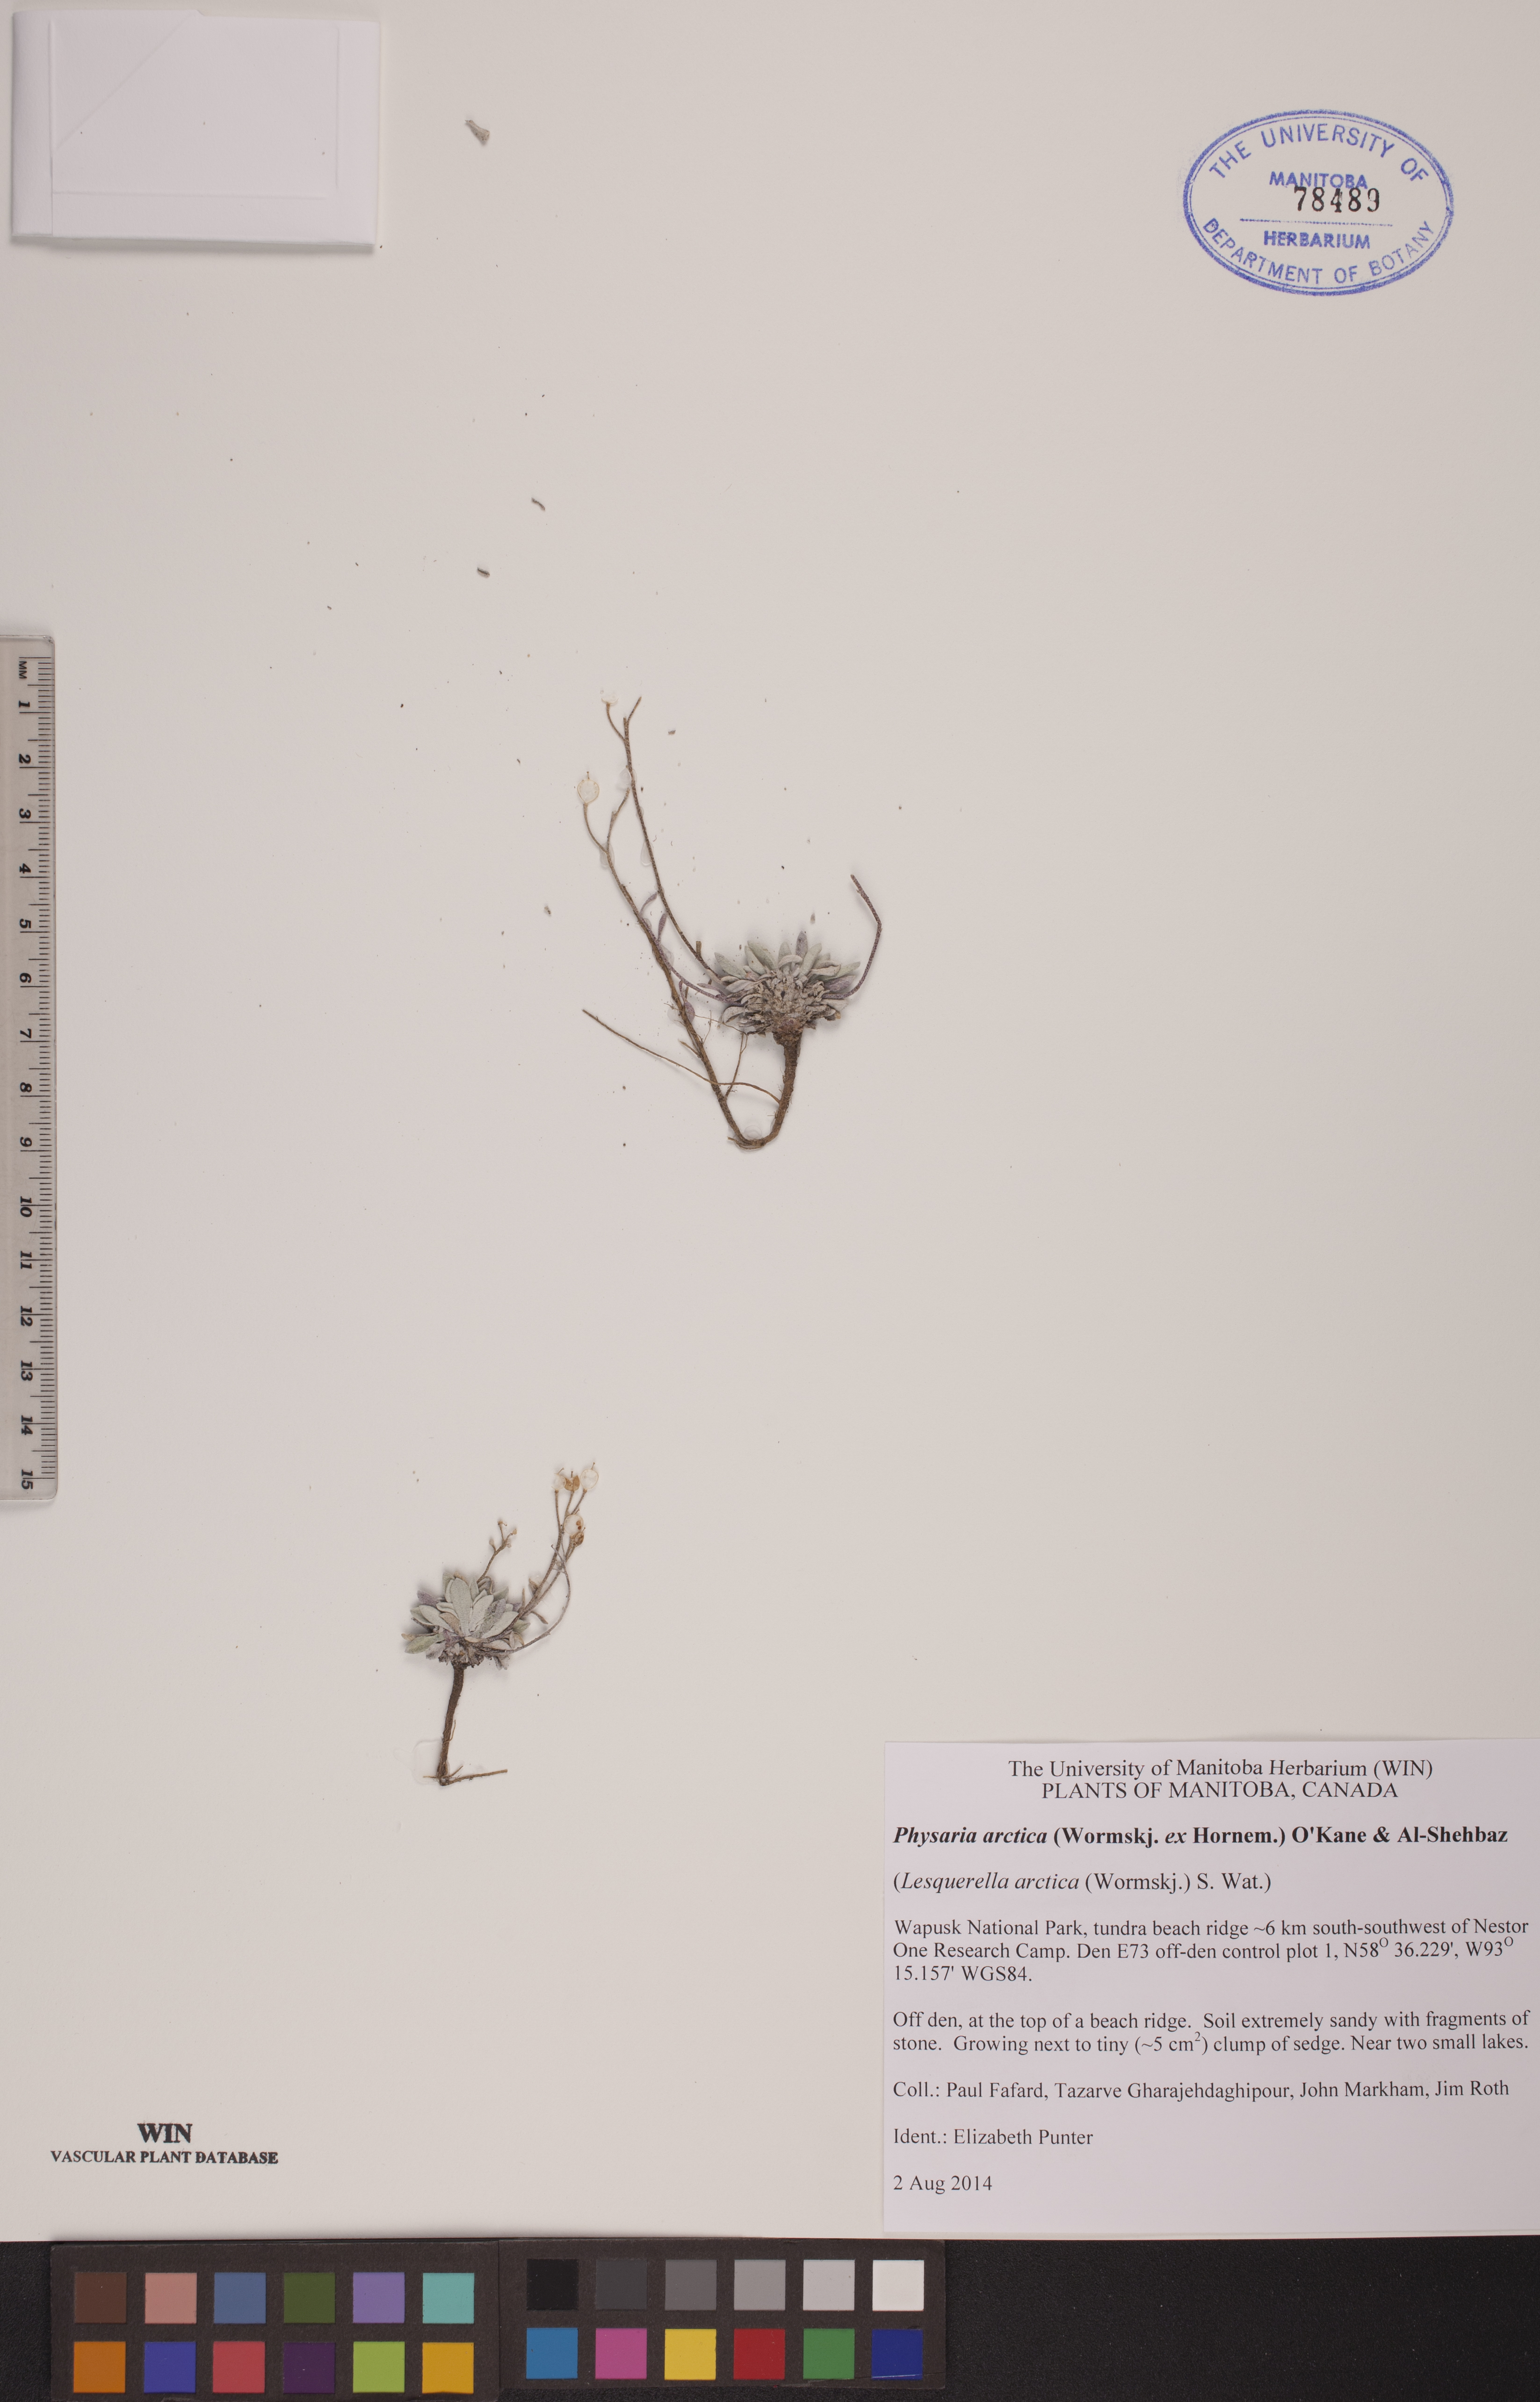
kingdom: Plantae
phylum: Tracheophyta
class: Magnoliopsida
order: Brassicales
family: Brassicaceae
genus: Physaria
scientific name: Physaria arctica
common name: Arctic bladderpod
